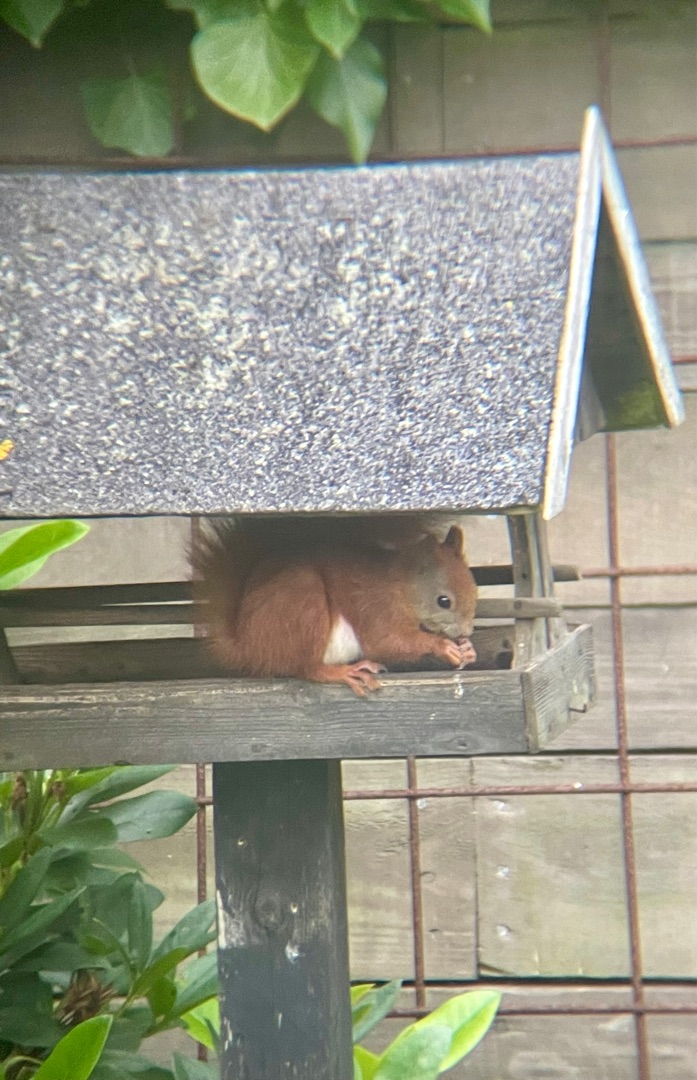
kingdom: Animalia
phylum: Chordata
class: Mammalia
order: Rodentia
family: Sciuridae
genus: Sciurus
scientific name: Sciurus vulgaris
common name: Egern
